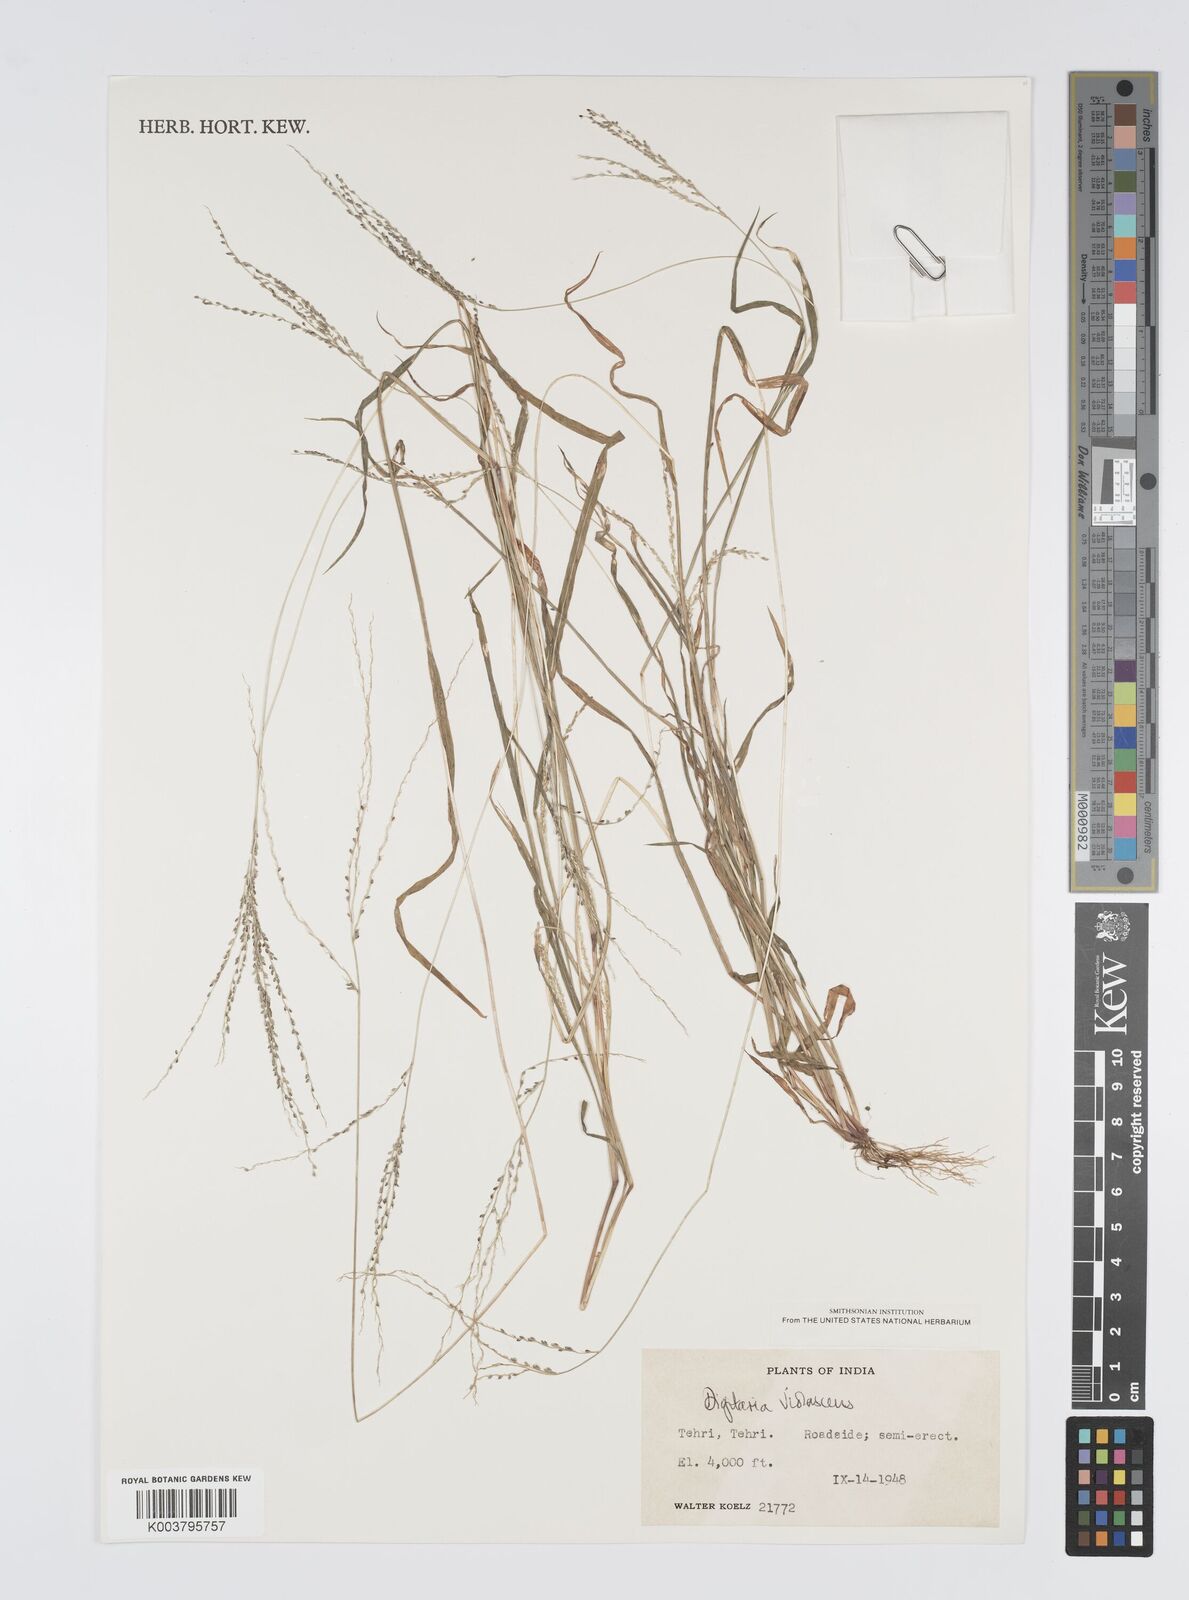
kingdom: Plantae
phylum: Tracheophyta
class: Liliopsida
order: Poales
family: Poaceae
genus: Digitaria
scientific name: Digitaria violascens
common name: Violet crabgrass
